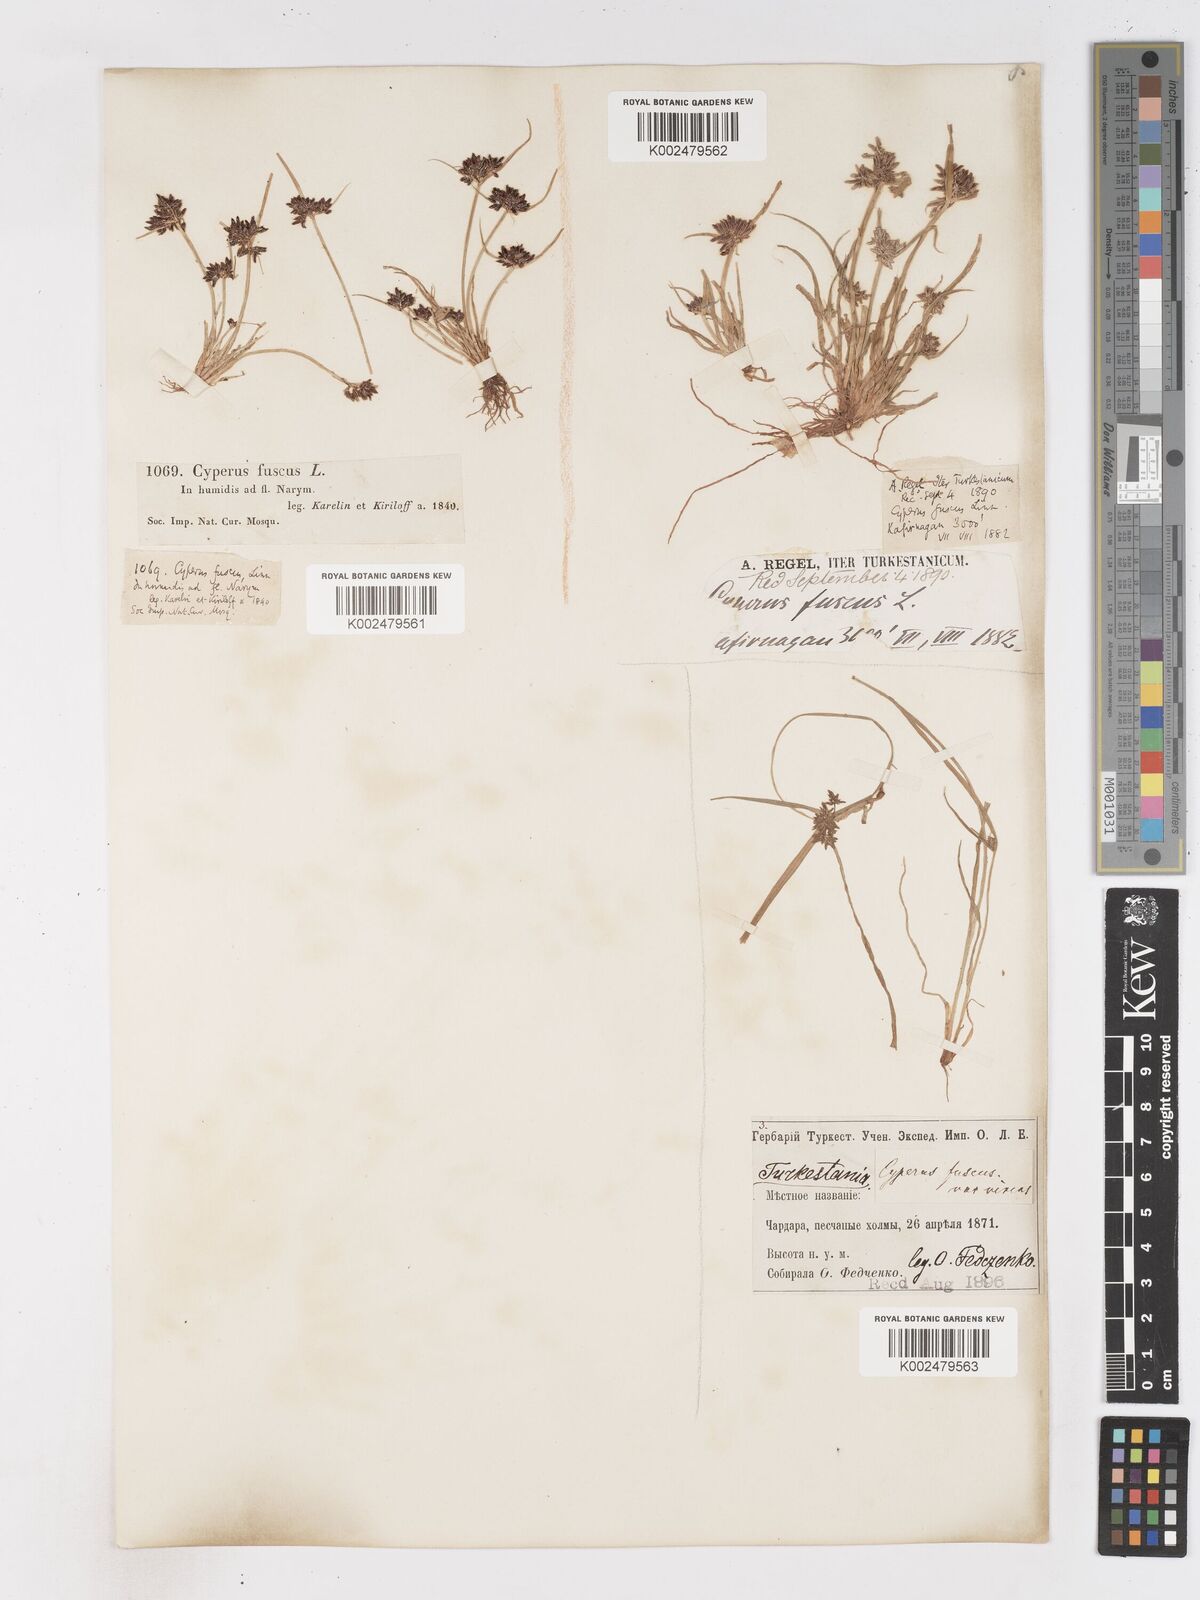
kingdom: Plantae
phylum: Tracheophyta
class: Liliopsida
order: Poales
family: Cyperaceae
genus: Cyperus
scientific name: Cyperus fuscus
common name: Brown galingale
